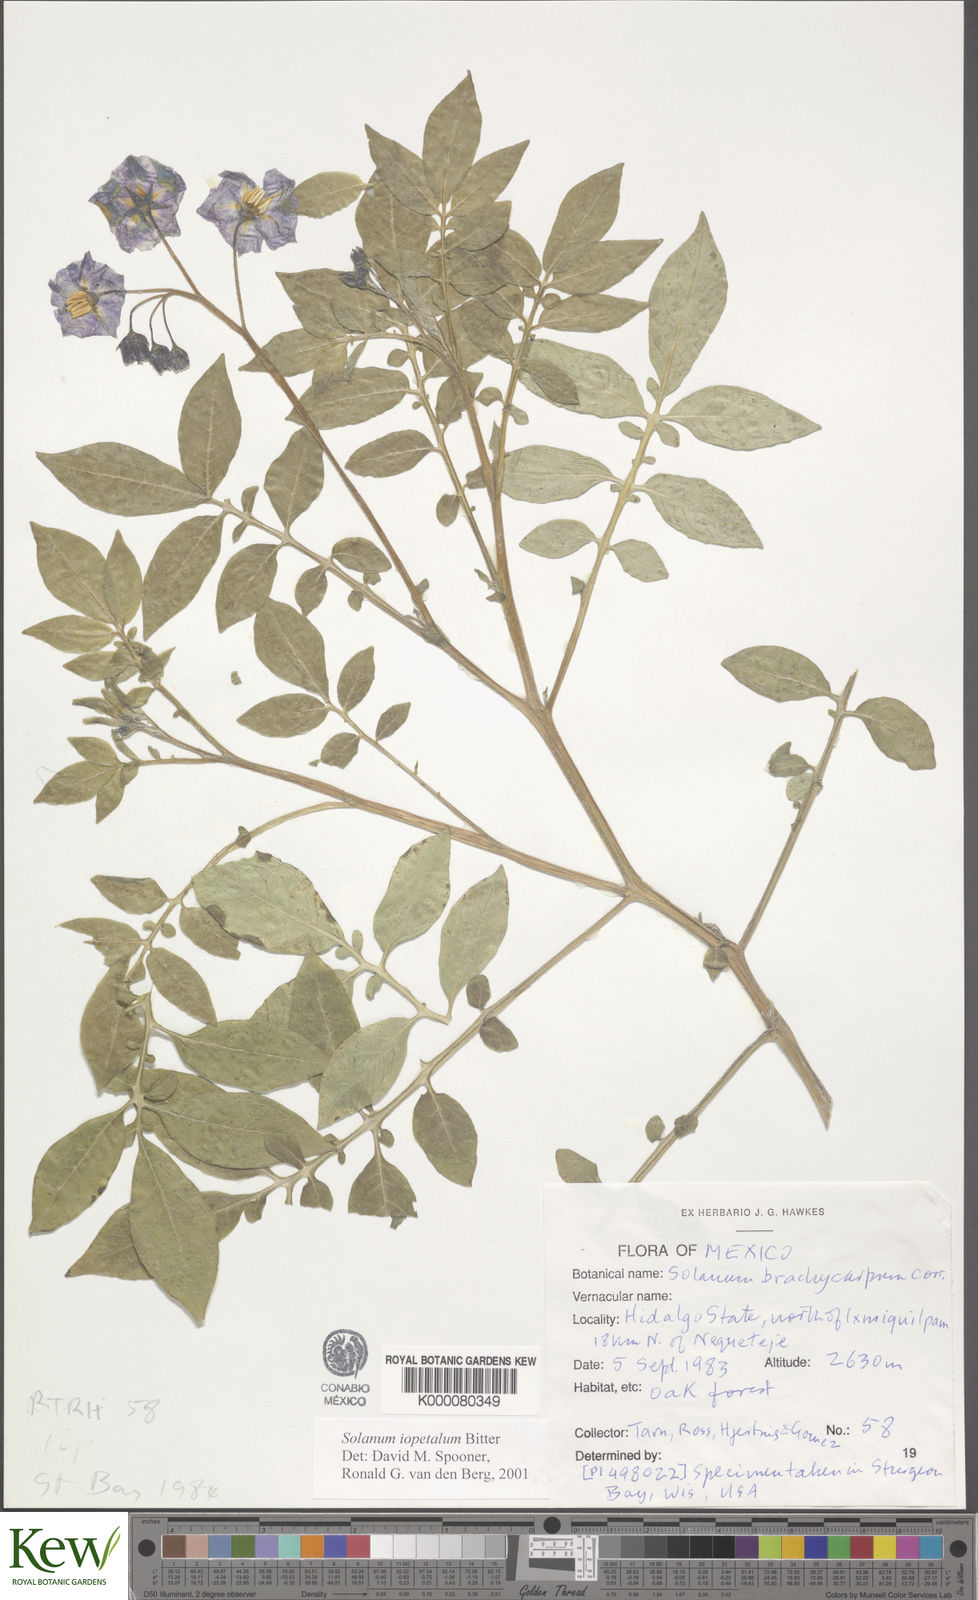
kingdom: Plantae
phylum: Tracheophyta
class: Magnoliopsida
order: Solanales
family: Solanaceae
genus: Solanum
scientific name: Solanum iopetalum
